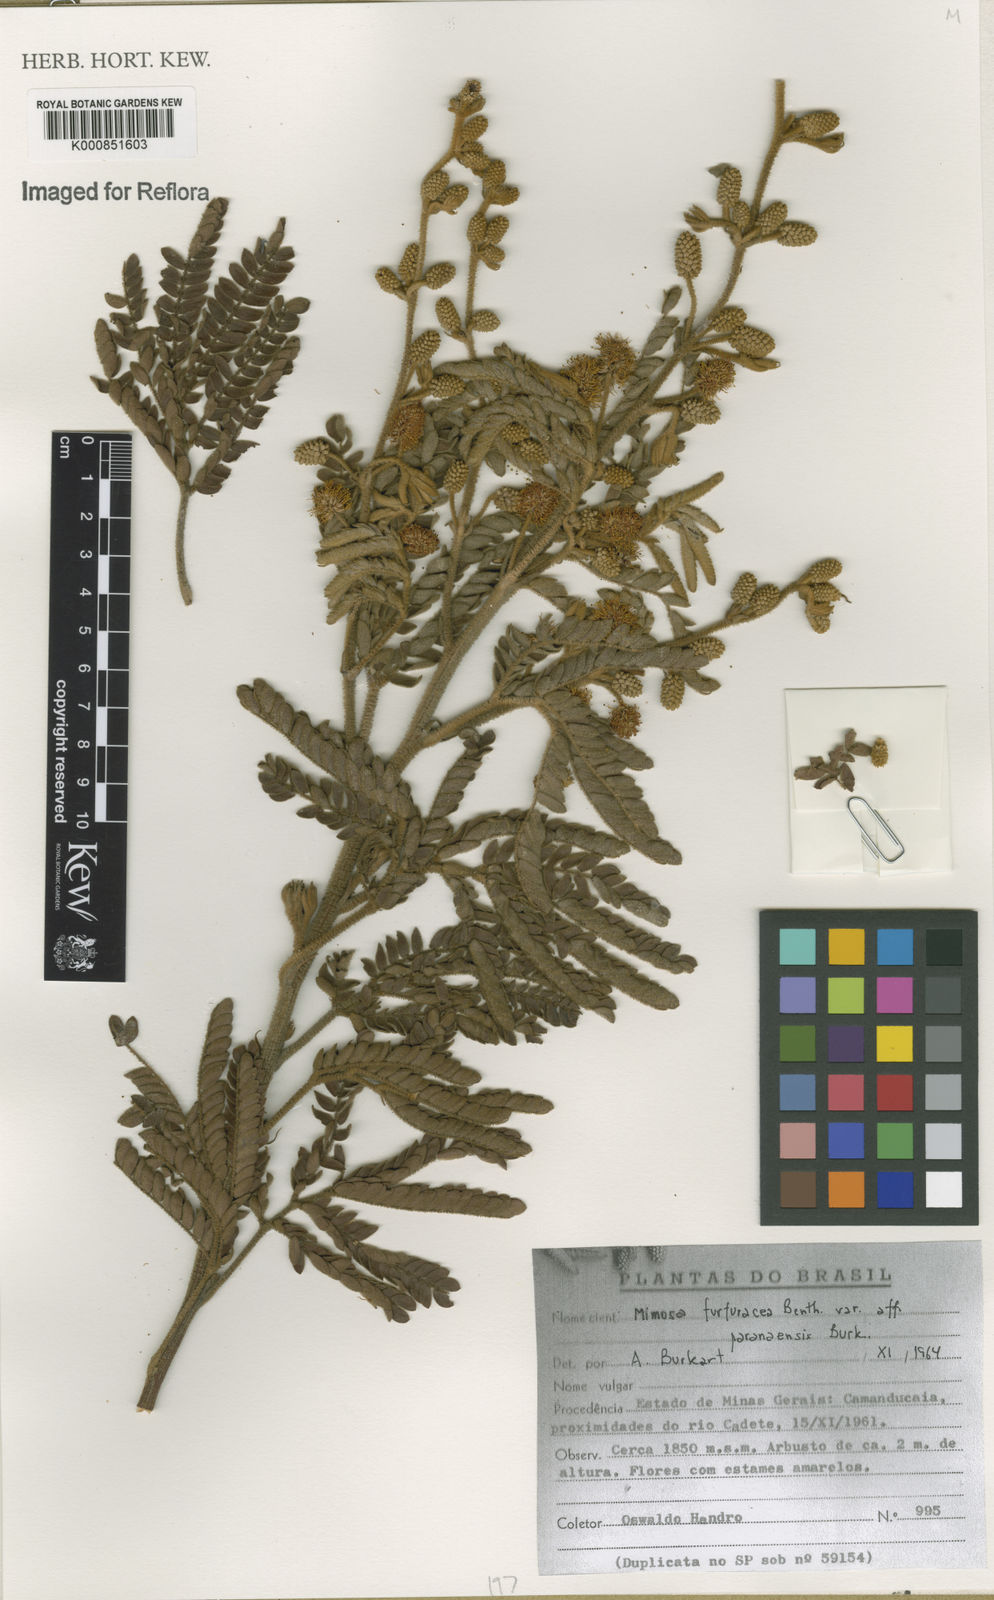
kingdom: Plantae
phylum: Tracheophyta
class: Magnoliopsida
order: Fabales
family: Fabaceae
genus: Mimosa
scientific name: Mimosa furfuracea
